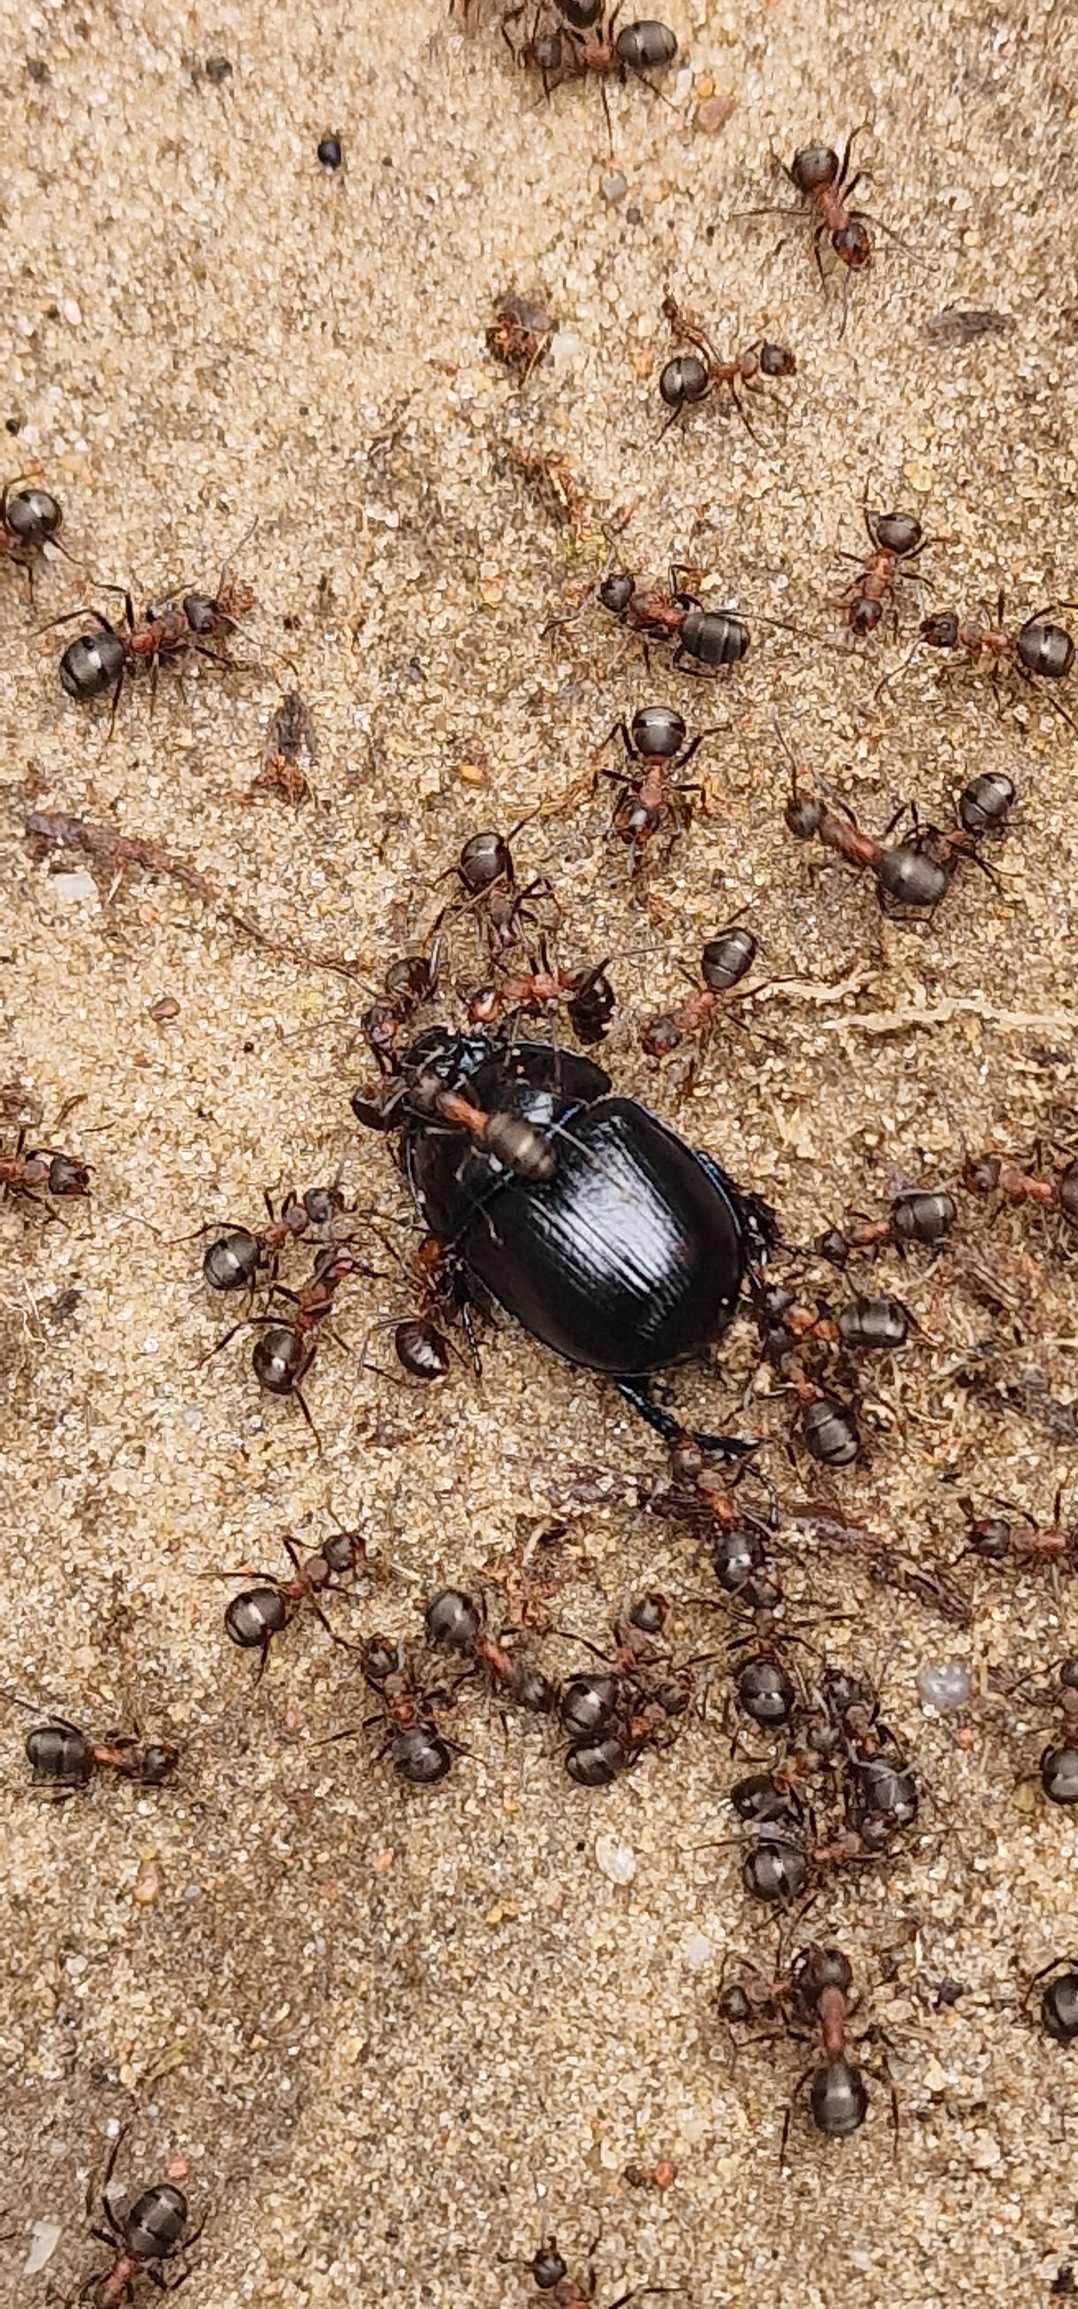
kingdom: Animalia
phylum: Arthropoda
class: Insecta
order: Coleoptera
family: Geotrupidae
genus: Anoplotrupes
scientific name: Anoplotrupes stercorosus
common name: Skovskarnbasse
